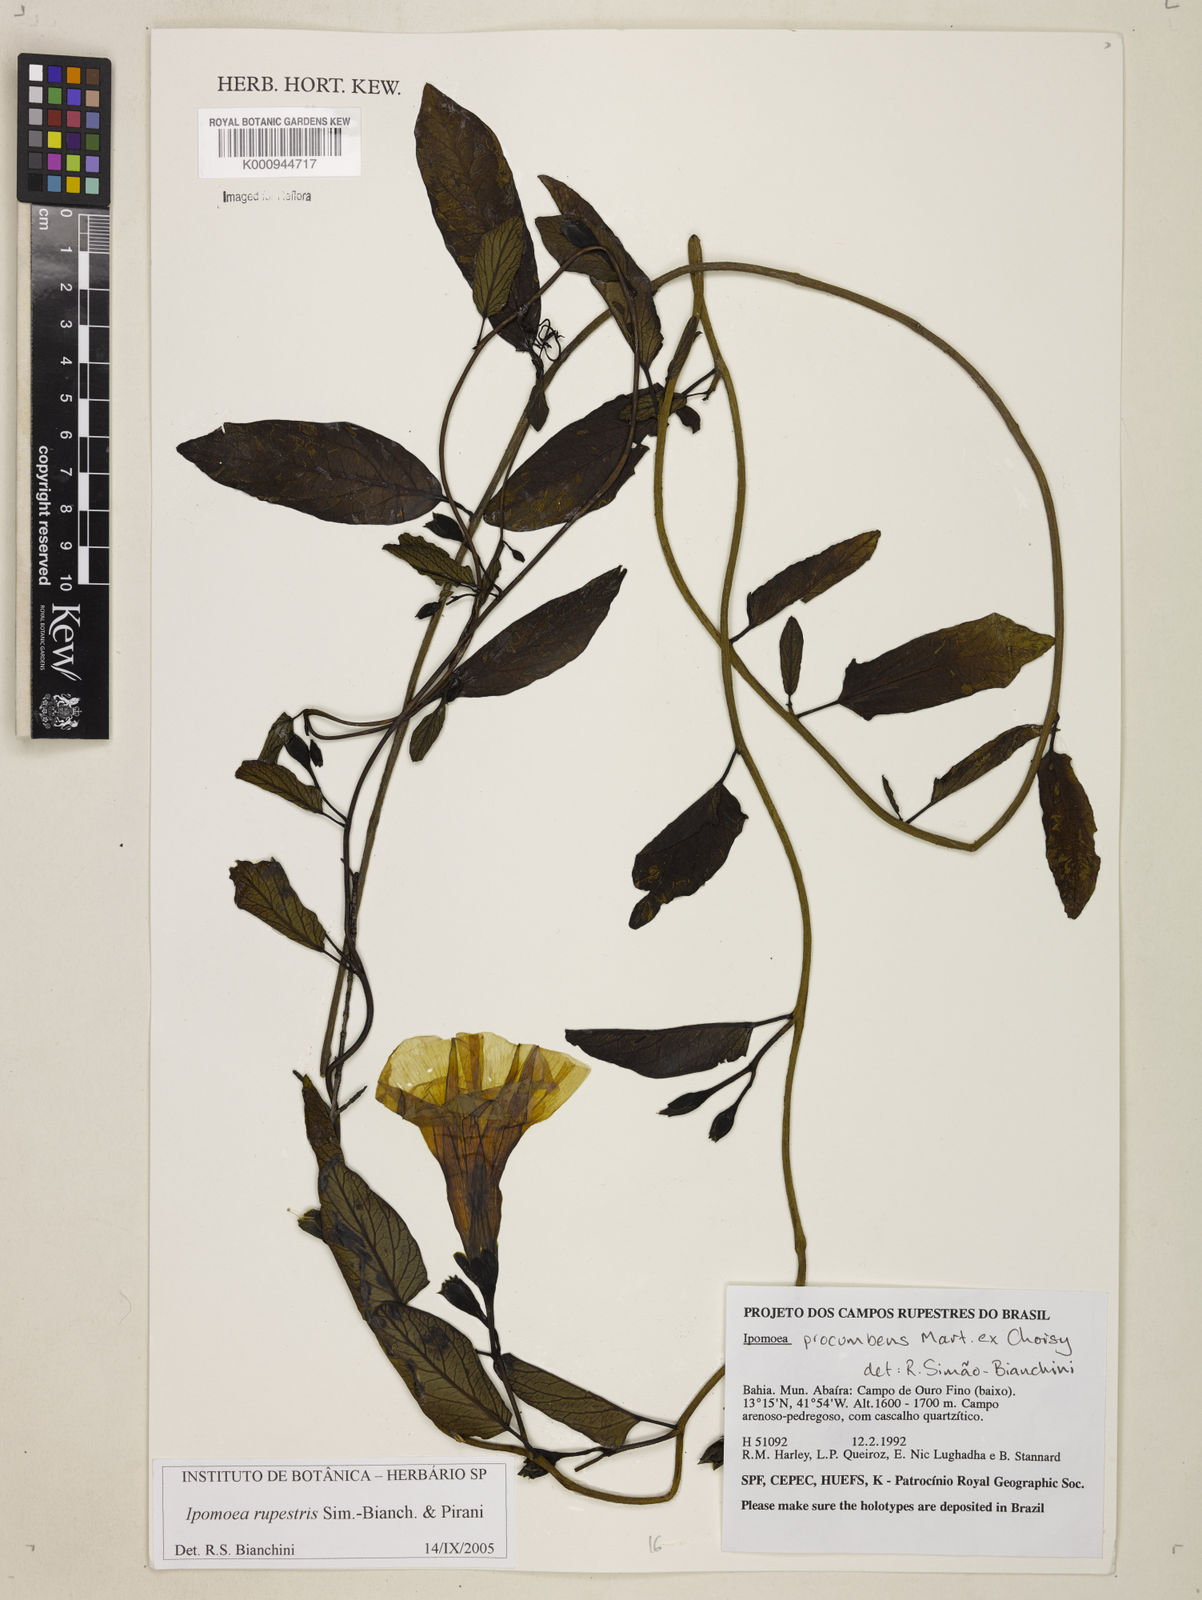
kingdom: Plantae
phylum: Tracheophyta
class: Magnoliopsida
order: Solanales
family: Convolvulaceae
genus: Ipomoea
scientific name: Ipomoea rupestris
